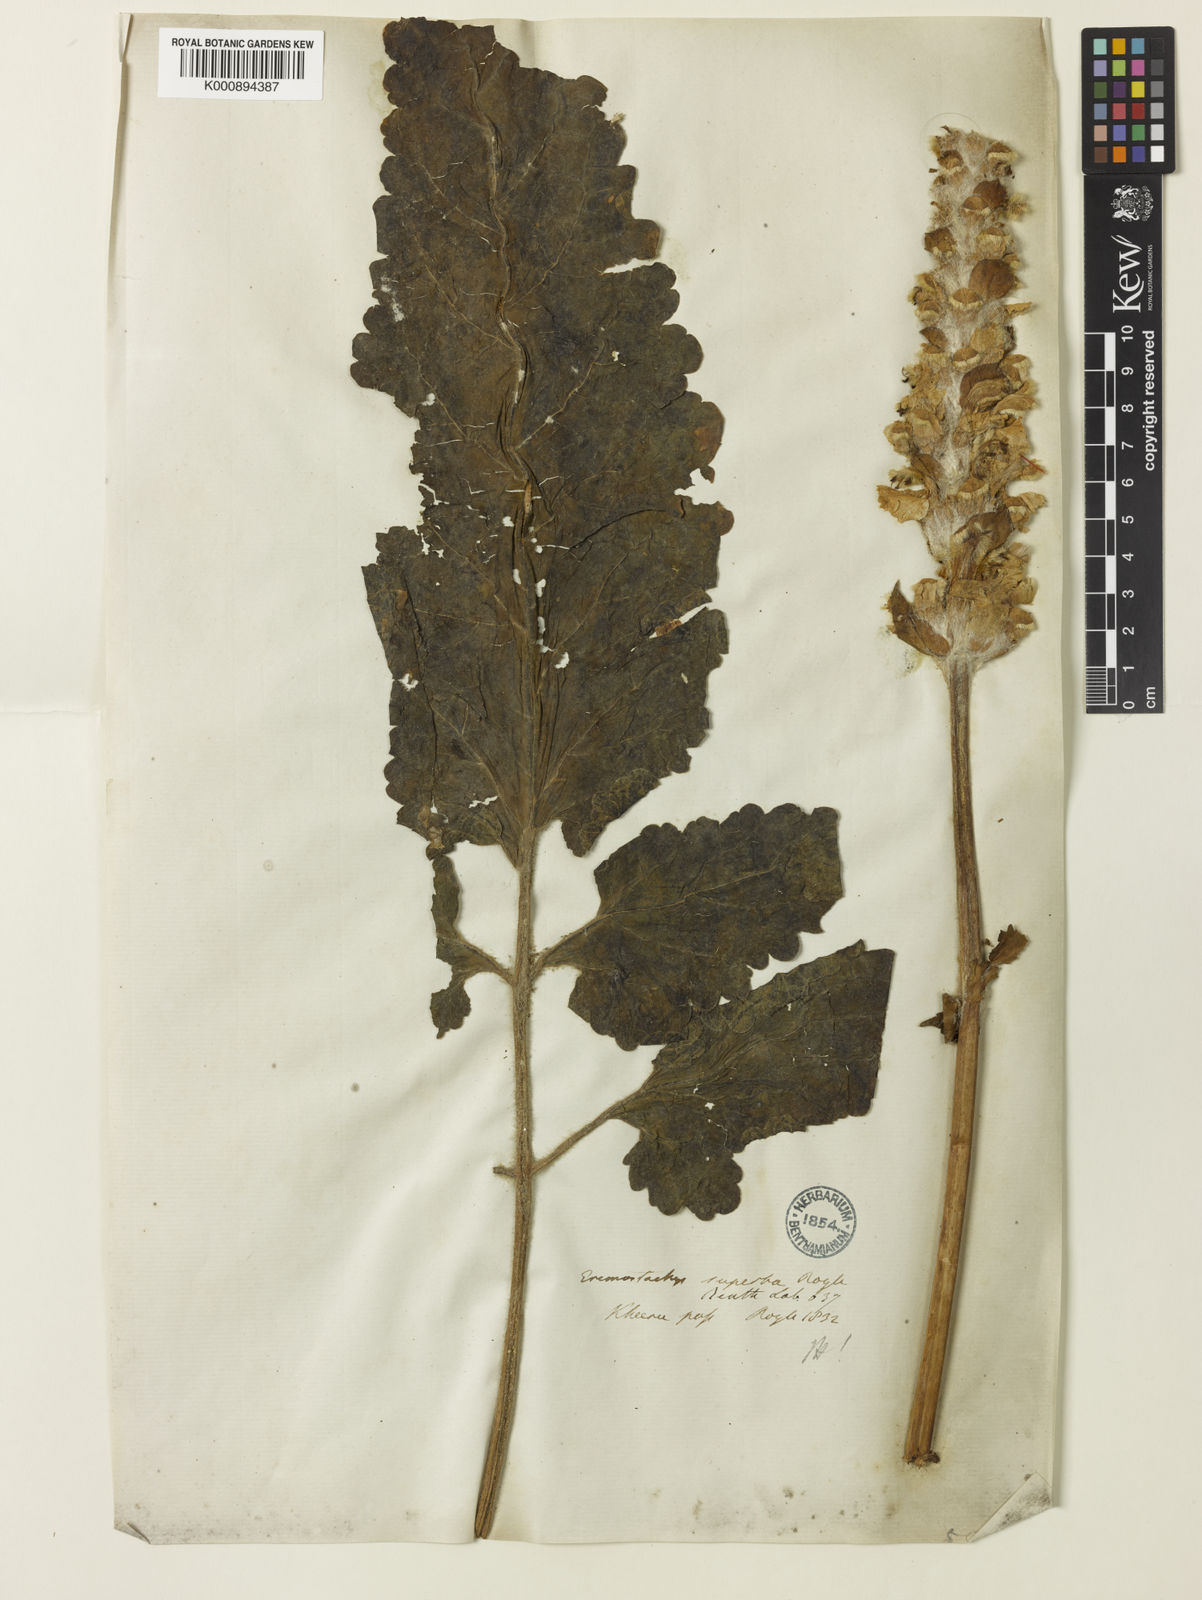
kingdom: Plantae
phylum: Tracheophyta
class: Magnoliopsida
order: Lamiales
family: Lamiaceae
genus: Phlomoides
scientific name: Phlomoides superba
